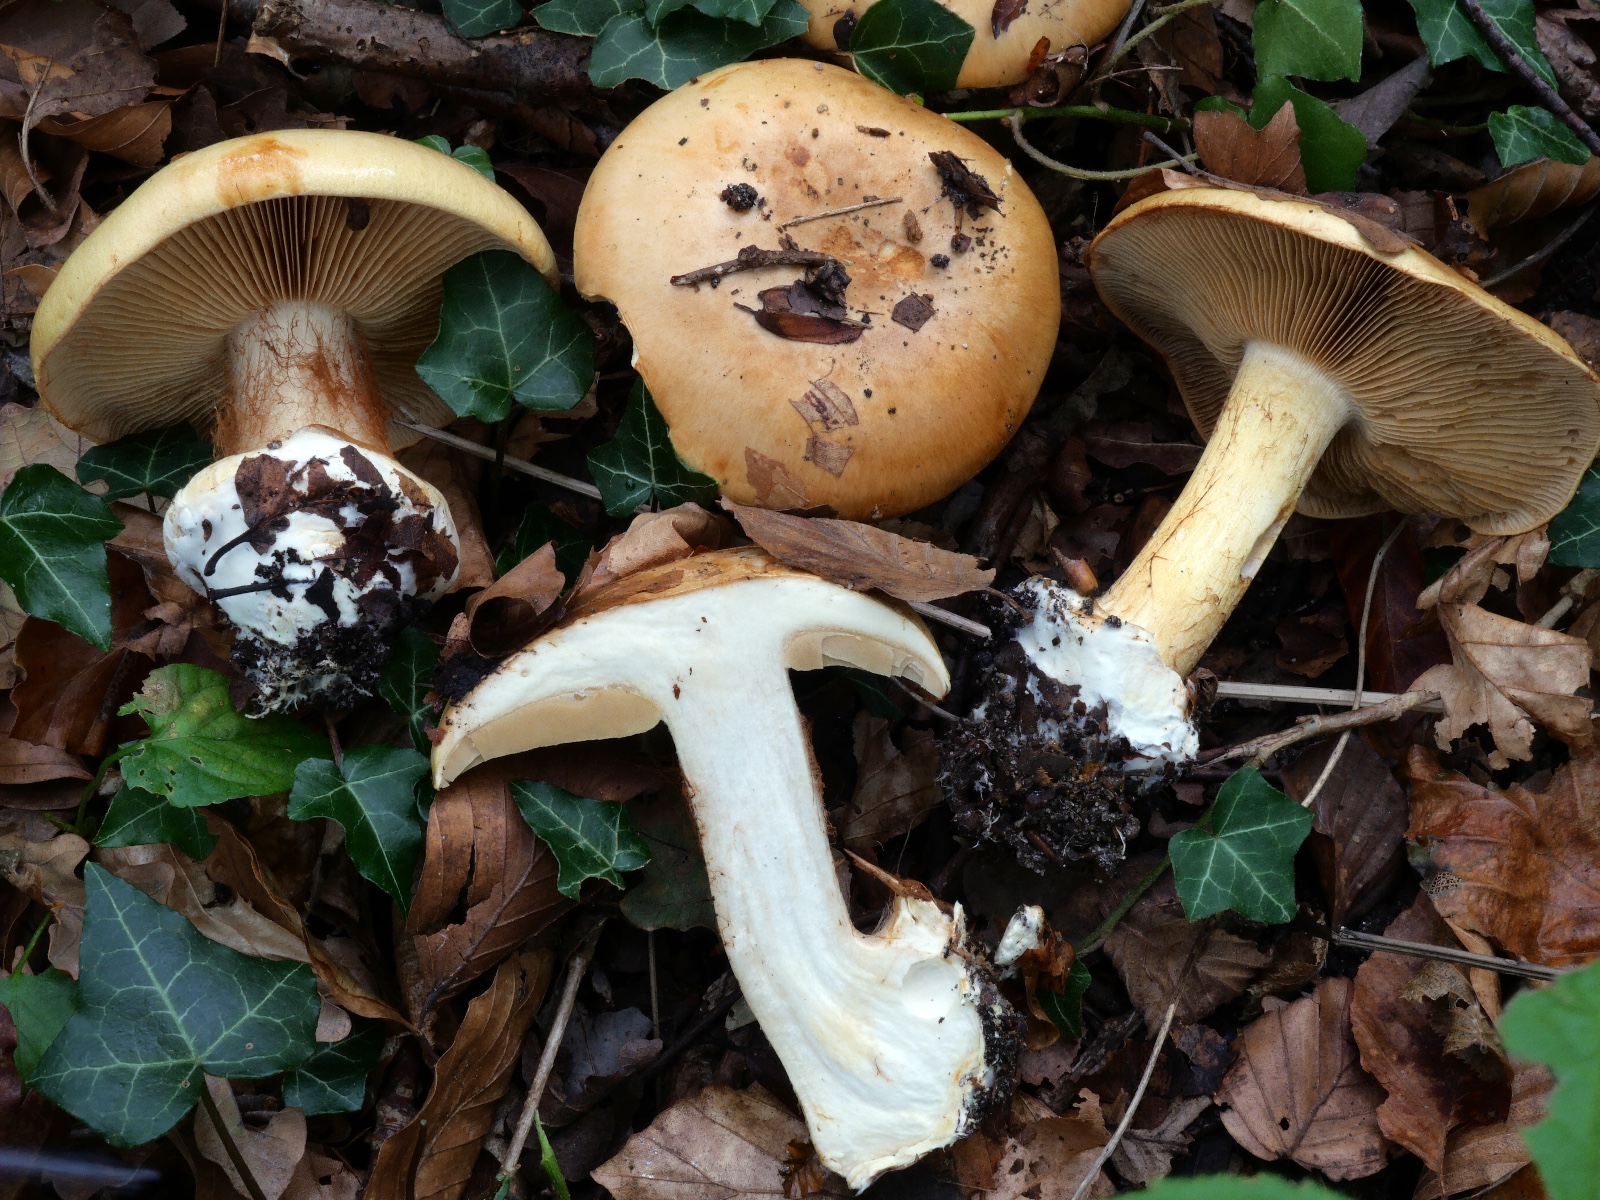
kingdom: Fungi
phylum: Basidiomycota
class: Agaricomycetes
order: Agaricales
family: Cortinariaceae
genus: Calonarius
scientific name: Calonarius humolens
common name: radise-slørhat
